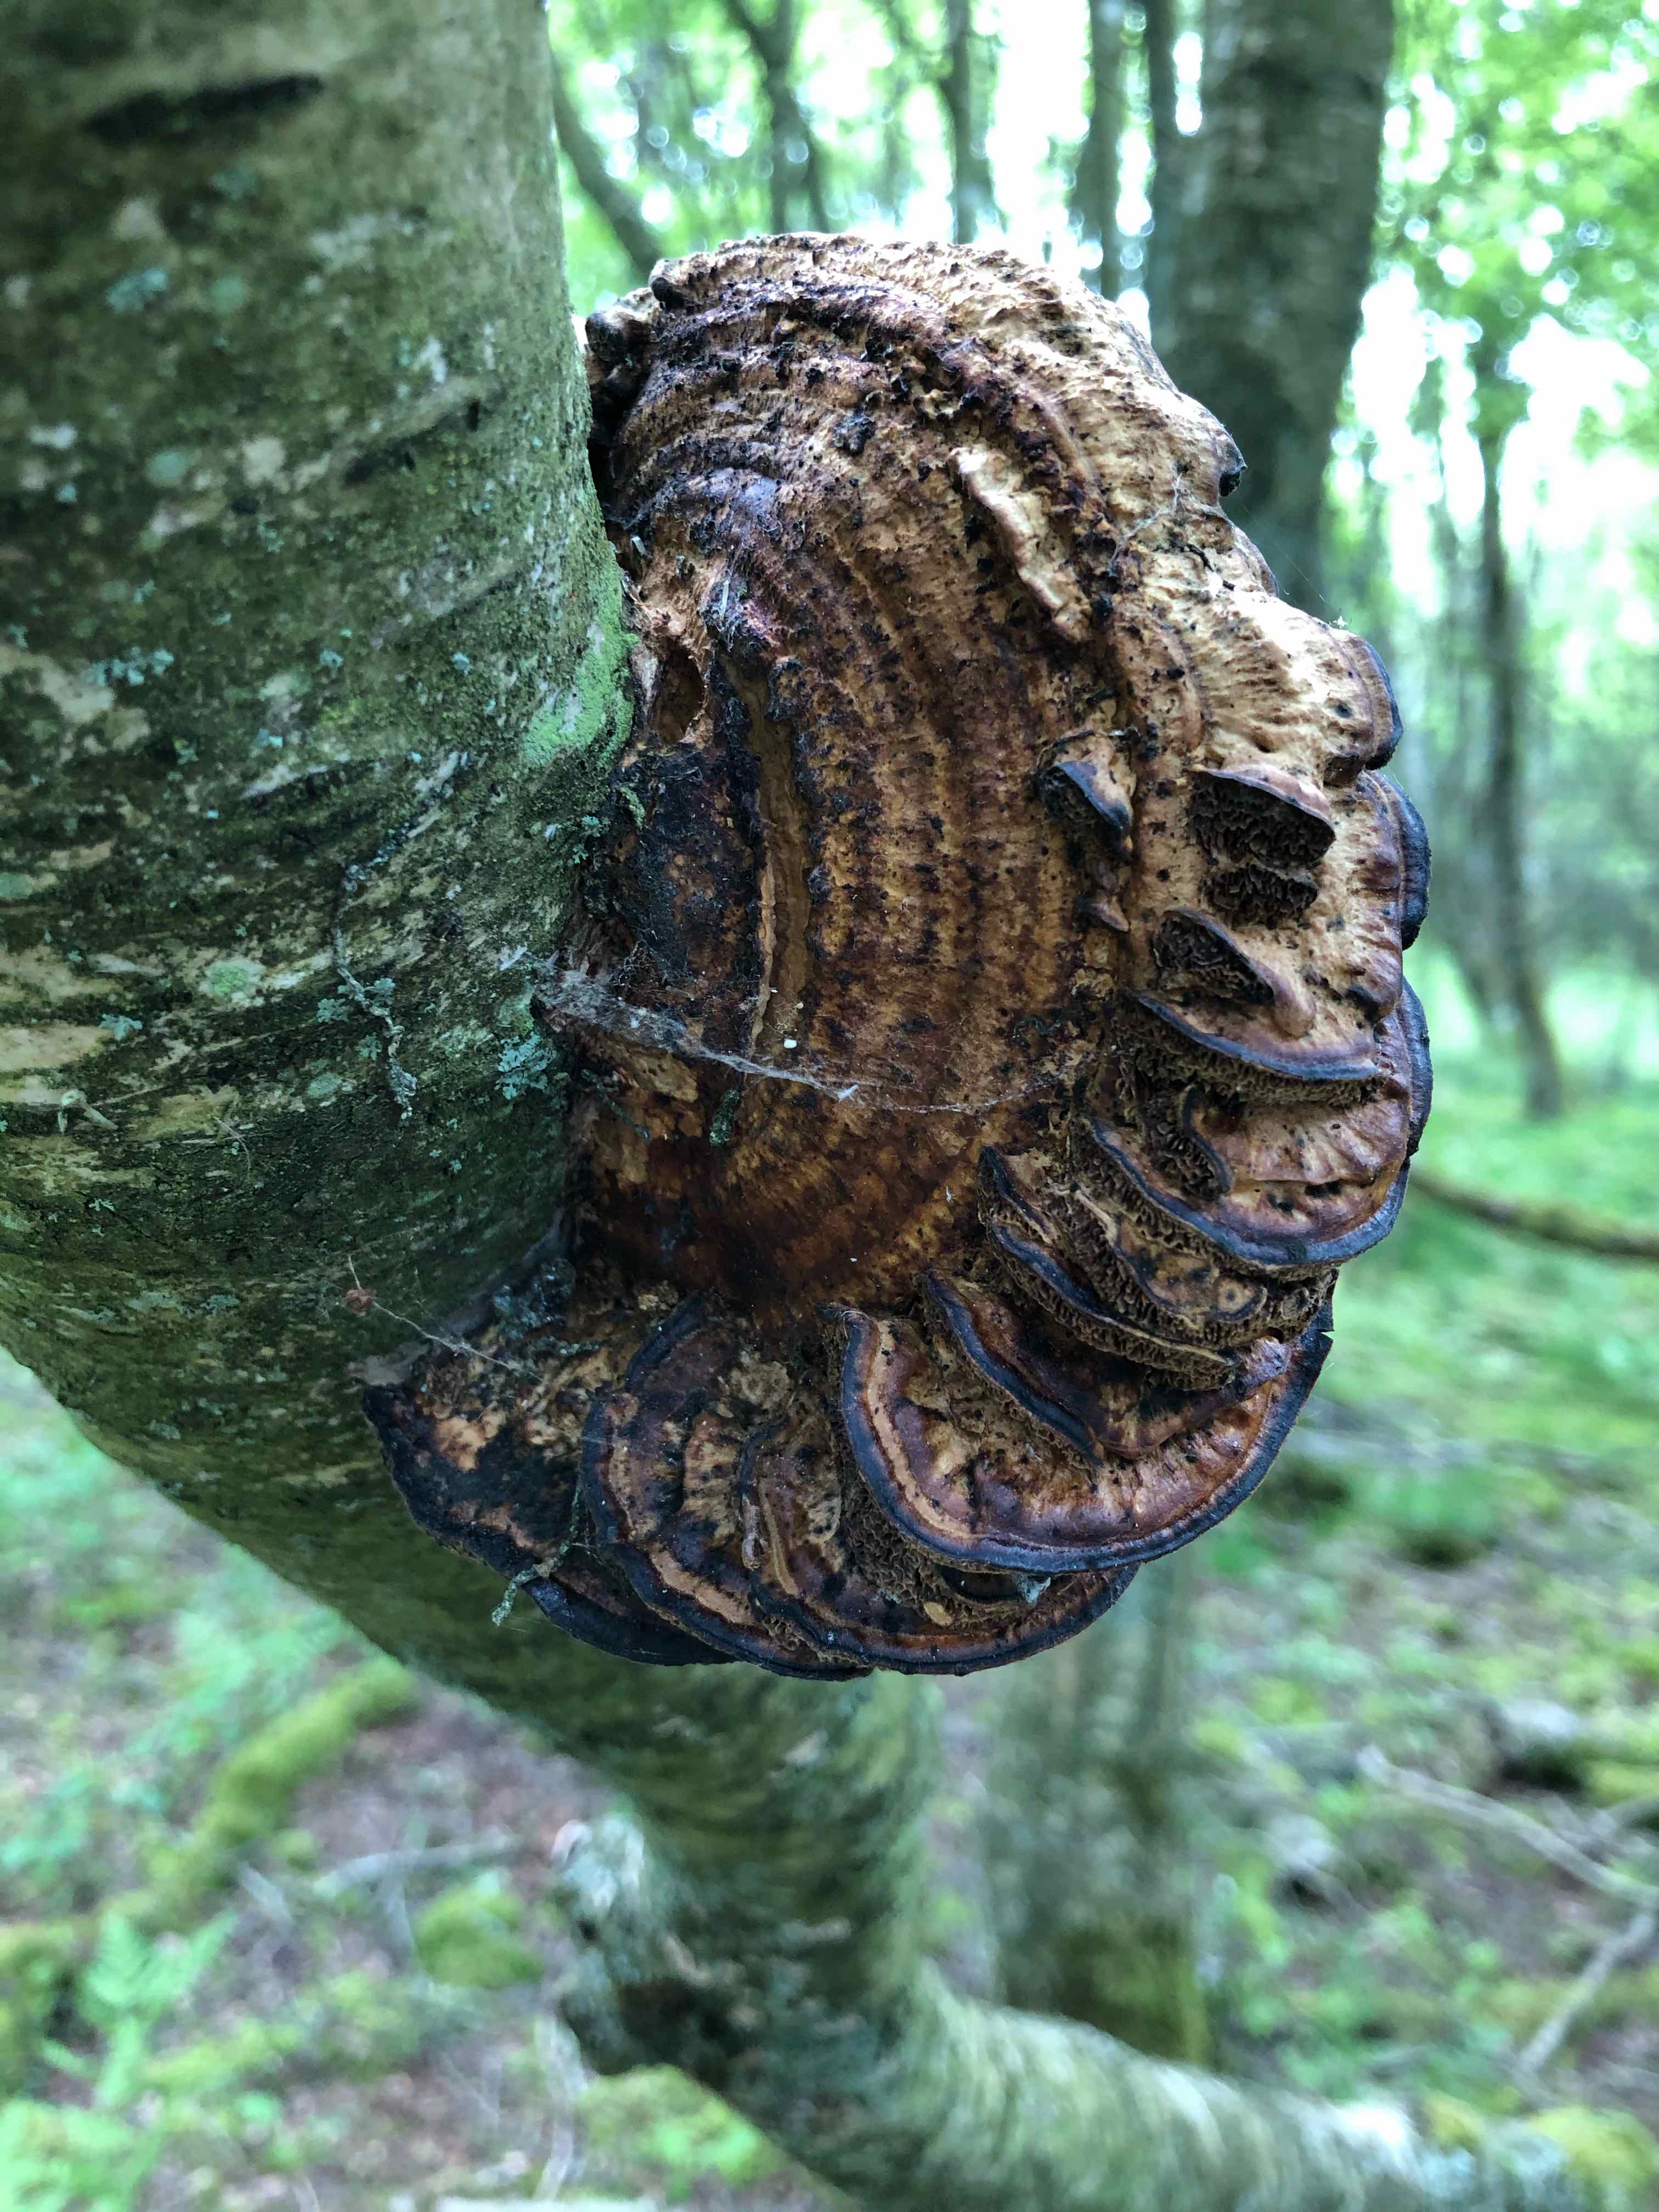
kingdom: Fungi
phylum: Basidiomycota
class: Agaricomycetes
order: Polyporales
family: Polyporaceae
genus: Daedaleopsis
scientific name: Daedaleopsis confragosa
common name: rødmende læderporesvamp
